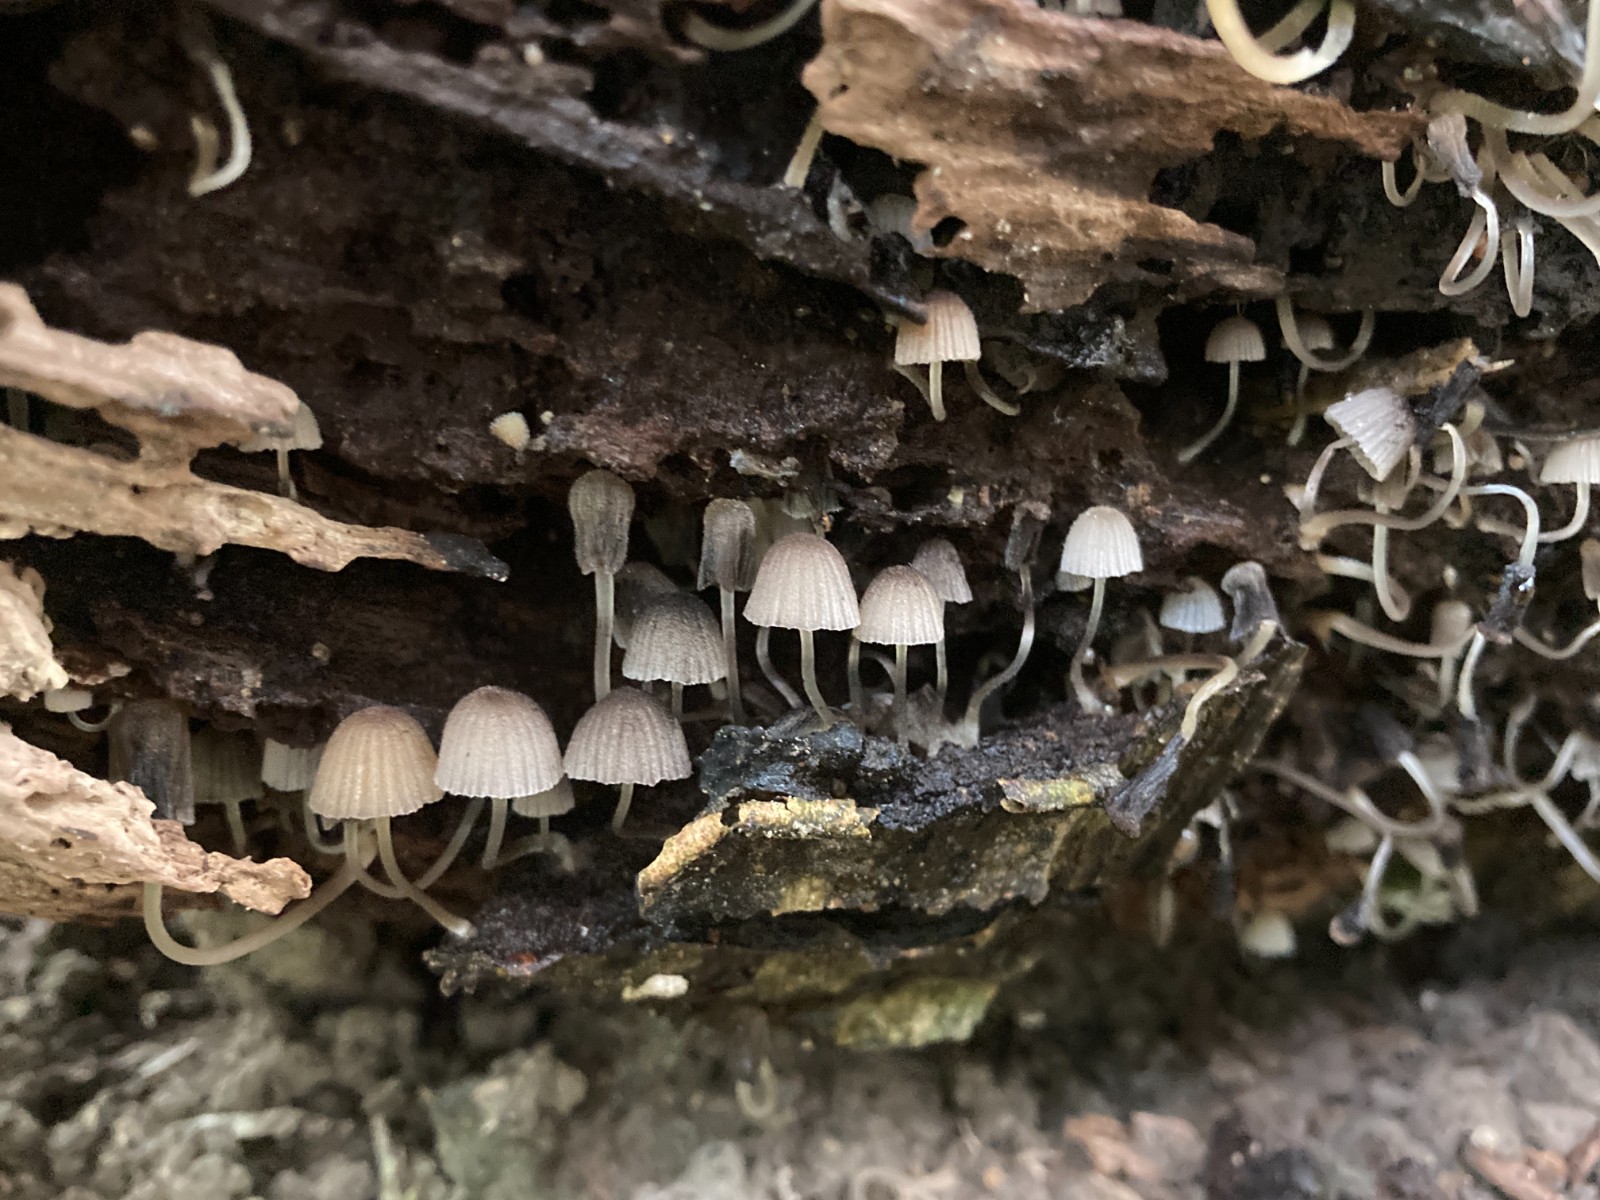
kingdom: Fungi
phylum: Basidiomycota
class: Agaricomycetes
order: Agaricales
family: Psathyrellaceae
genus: Coprinellus
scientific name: Coprinellus disseminatus
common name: bredsået blækhat
